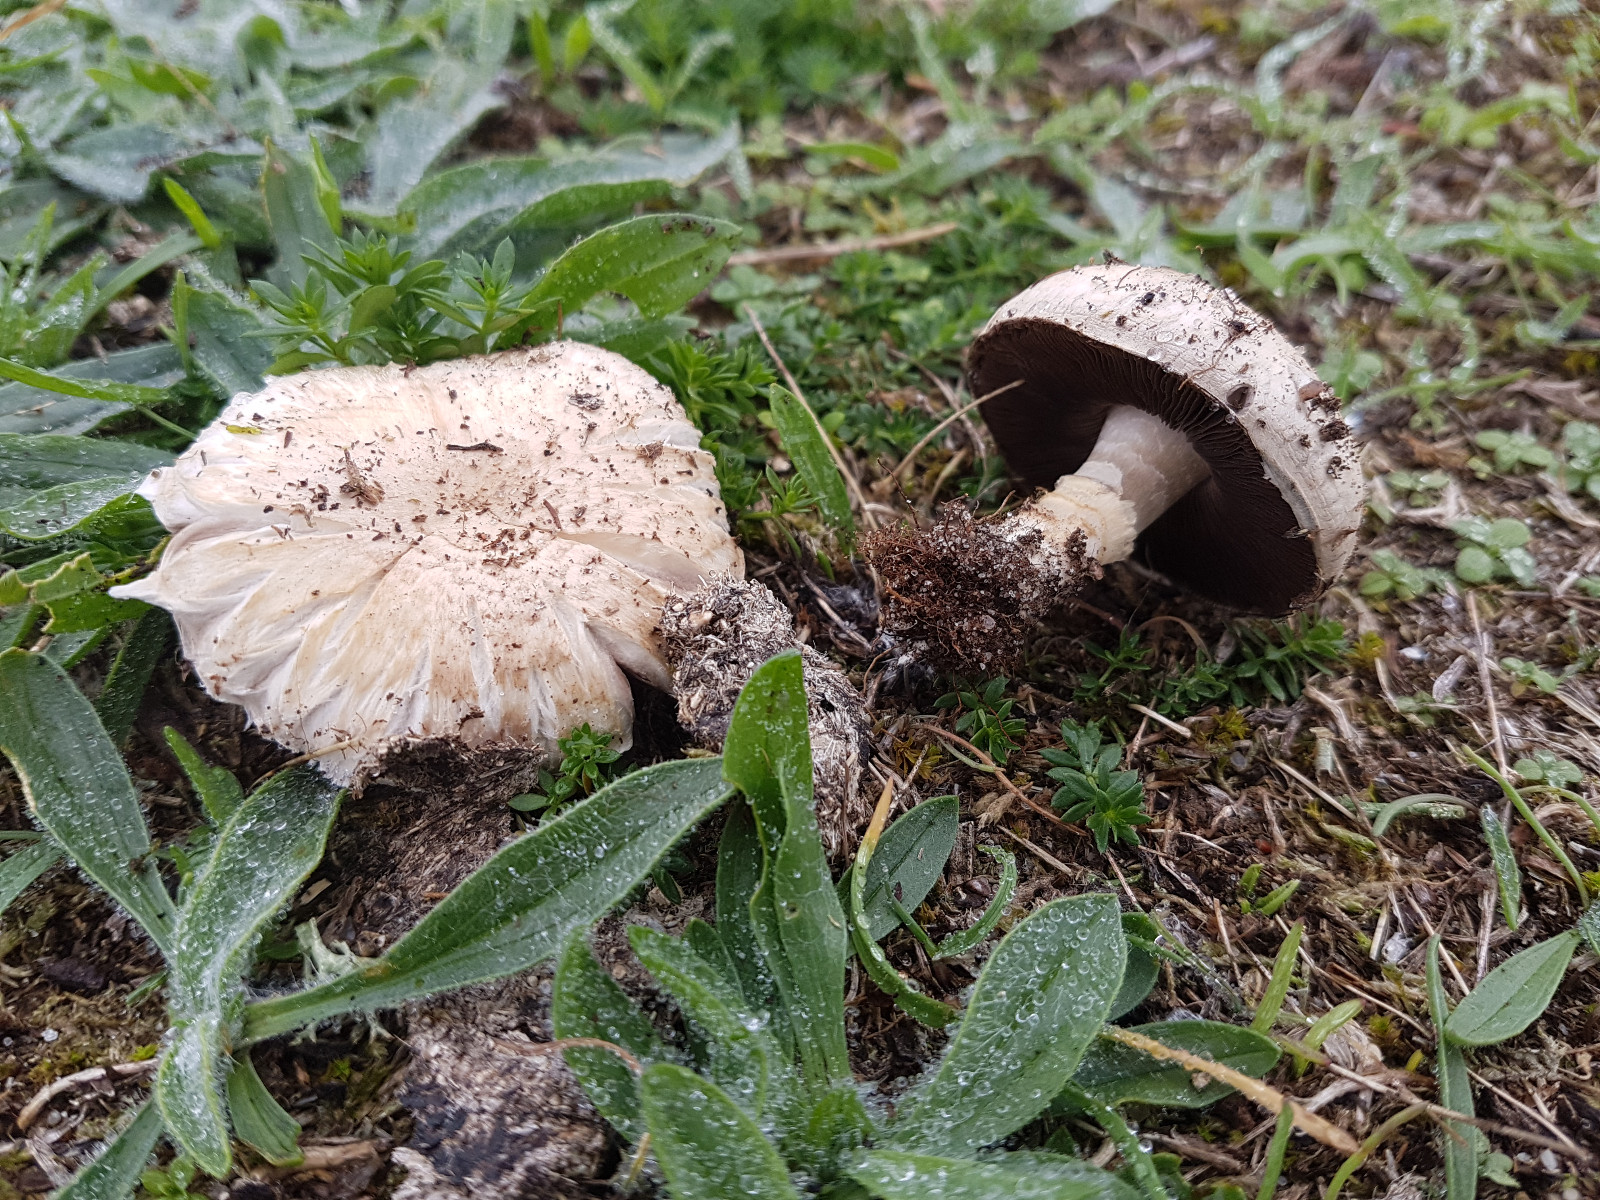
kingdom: Fungi
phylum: Basidiomycota
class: Agaricomycetes
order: Agaricales
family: Agaricaceae
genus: Agaricus
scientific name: Agaricus litoralis
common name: kyst-champignon
